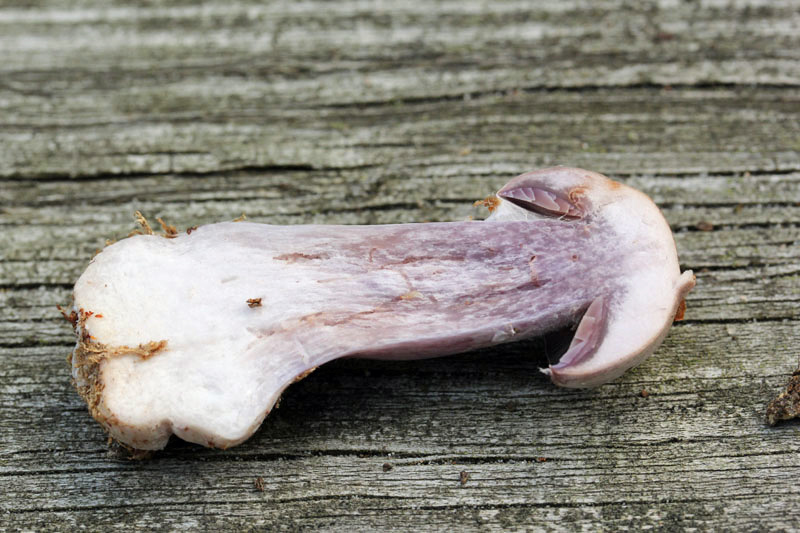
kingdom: Fungi
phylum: Basidiomycota
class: Agaricomycetes
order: Agaricales
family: Cortinariaceae
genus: Cortinarius
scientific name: Cortinarius quarciticus
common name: kvarts-slørhat
